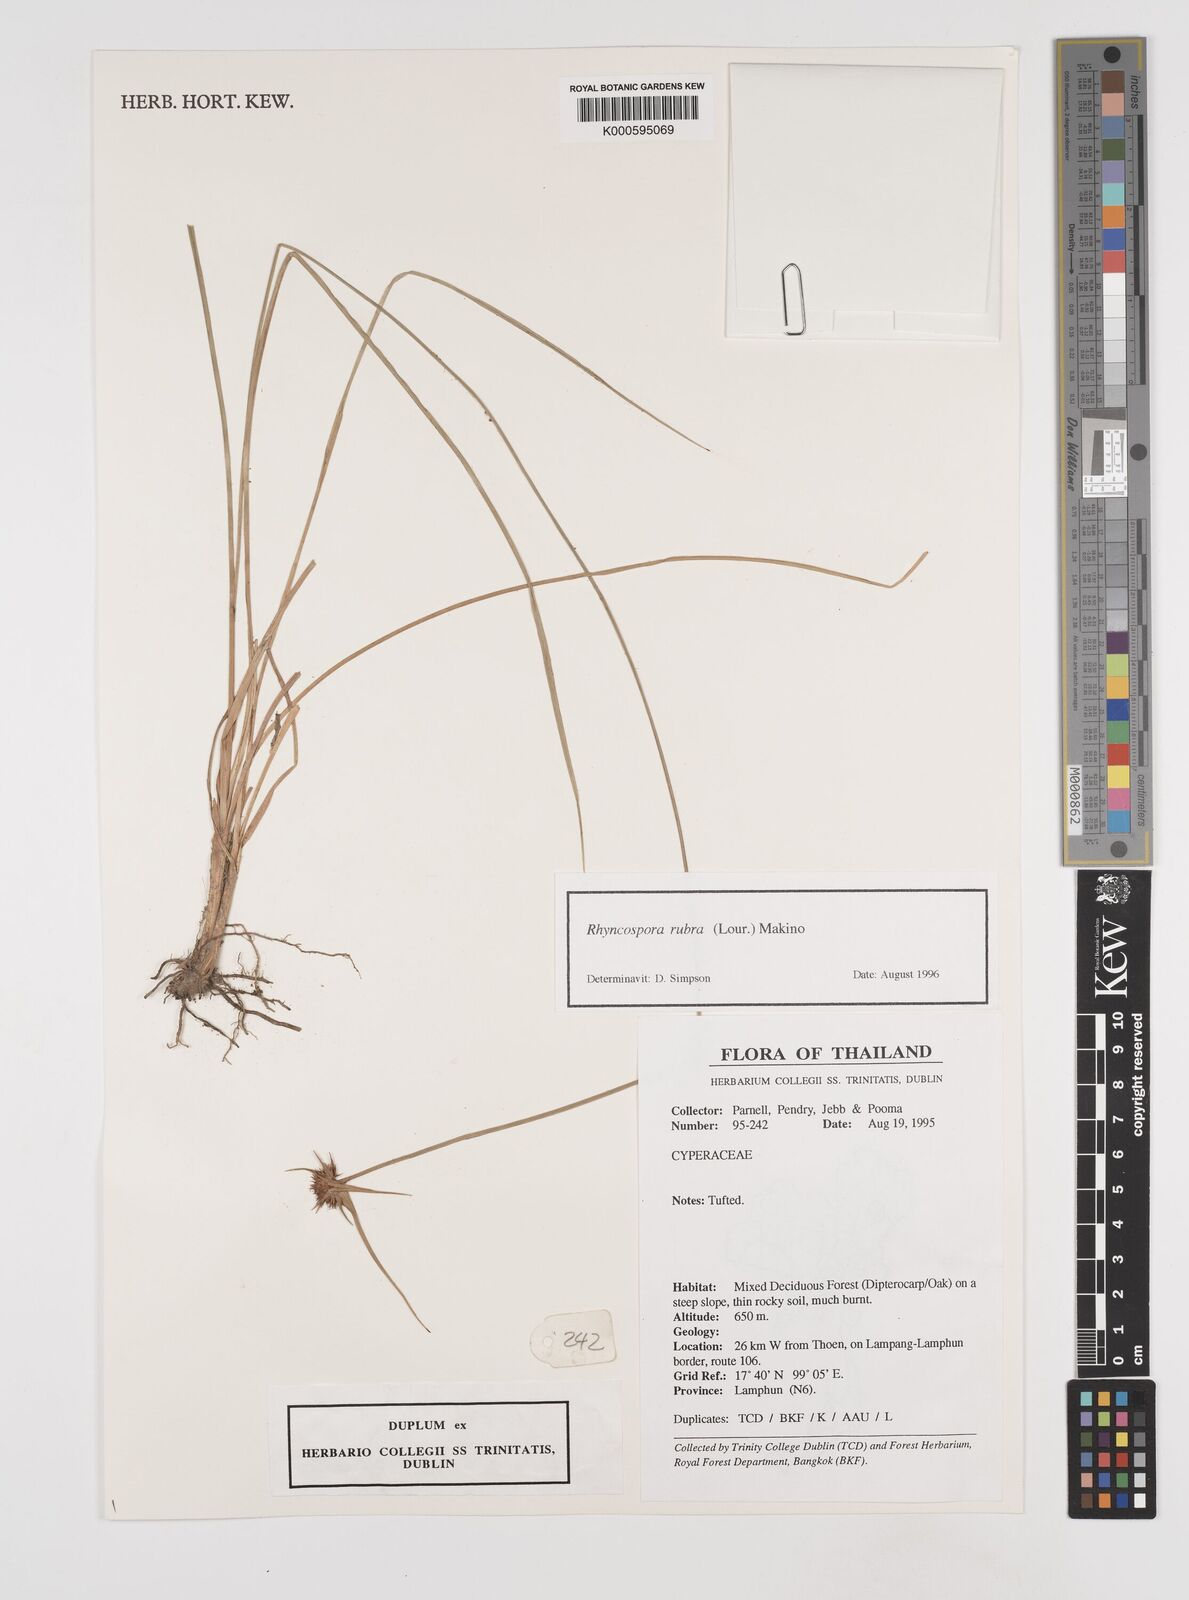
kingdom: Plantae
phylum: Tracheophyta
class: Liliopsida
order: Poales
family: Cyperaceae
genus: Rhynchospora
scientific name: Rhynchospora rubra
